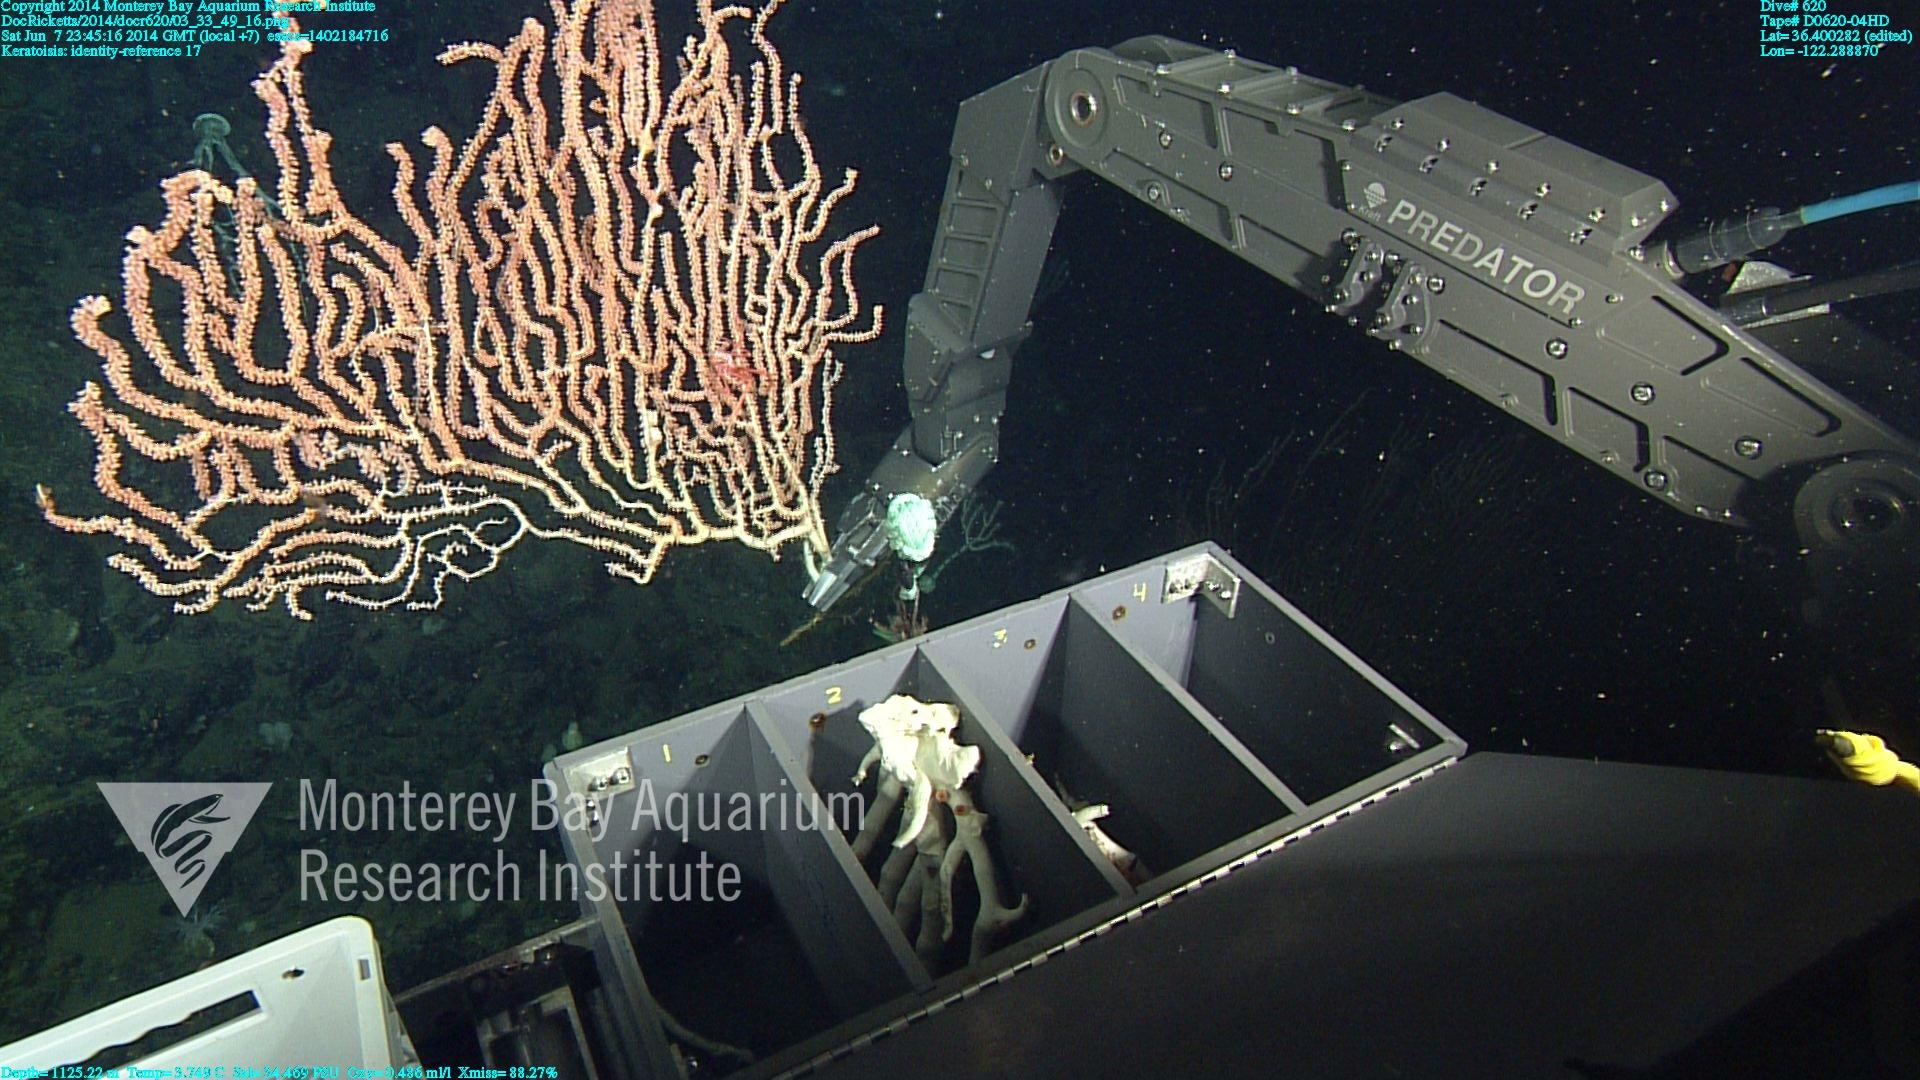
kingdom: Animalia
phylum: Cnidaria
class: Anthozoa
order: Scleralcyonacea
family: Keratoisididae
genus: Keratoisis
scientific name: Keratoisis
